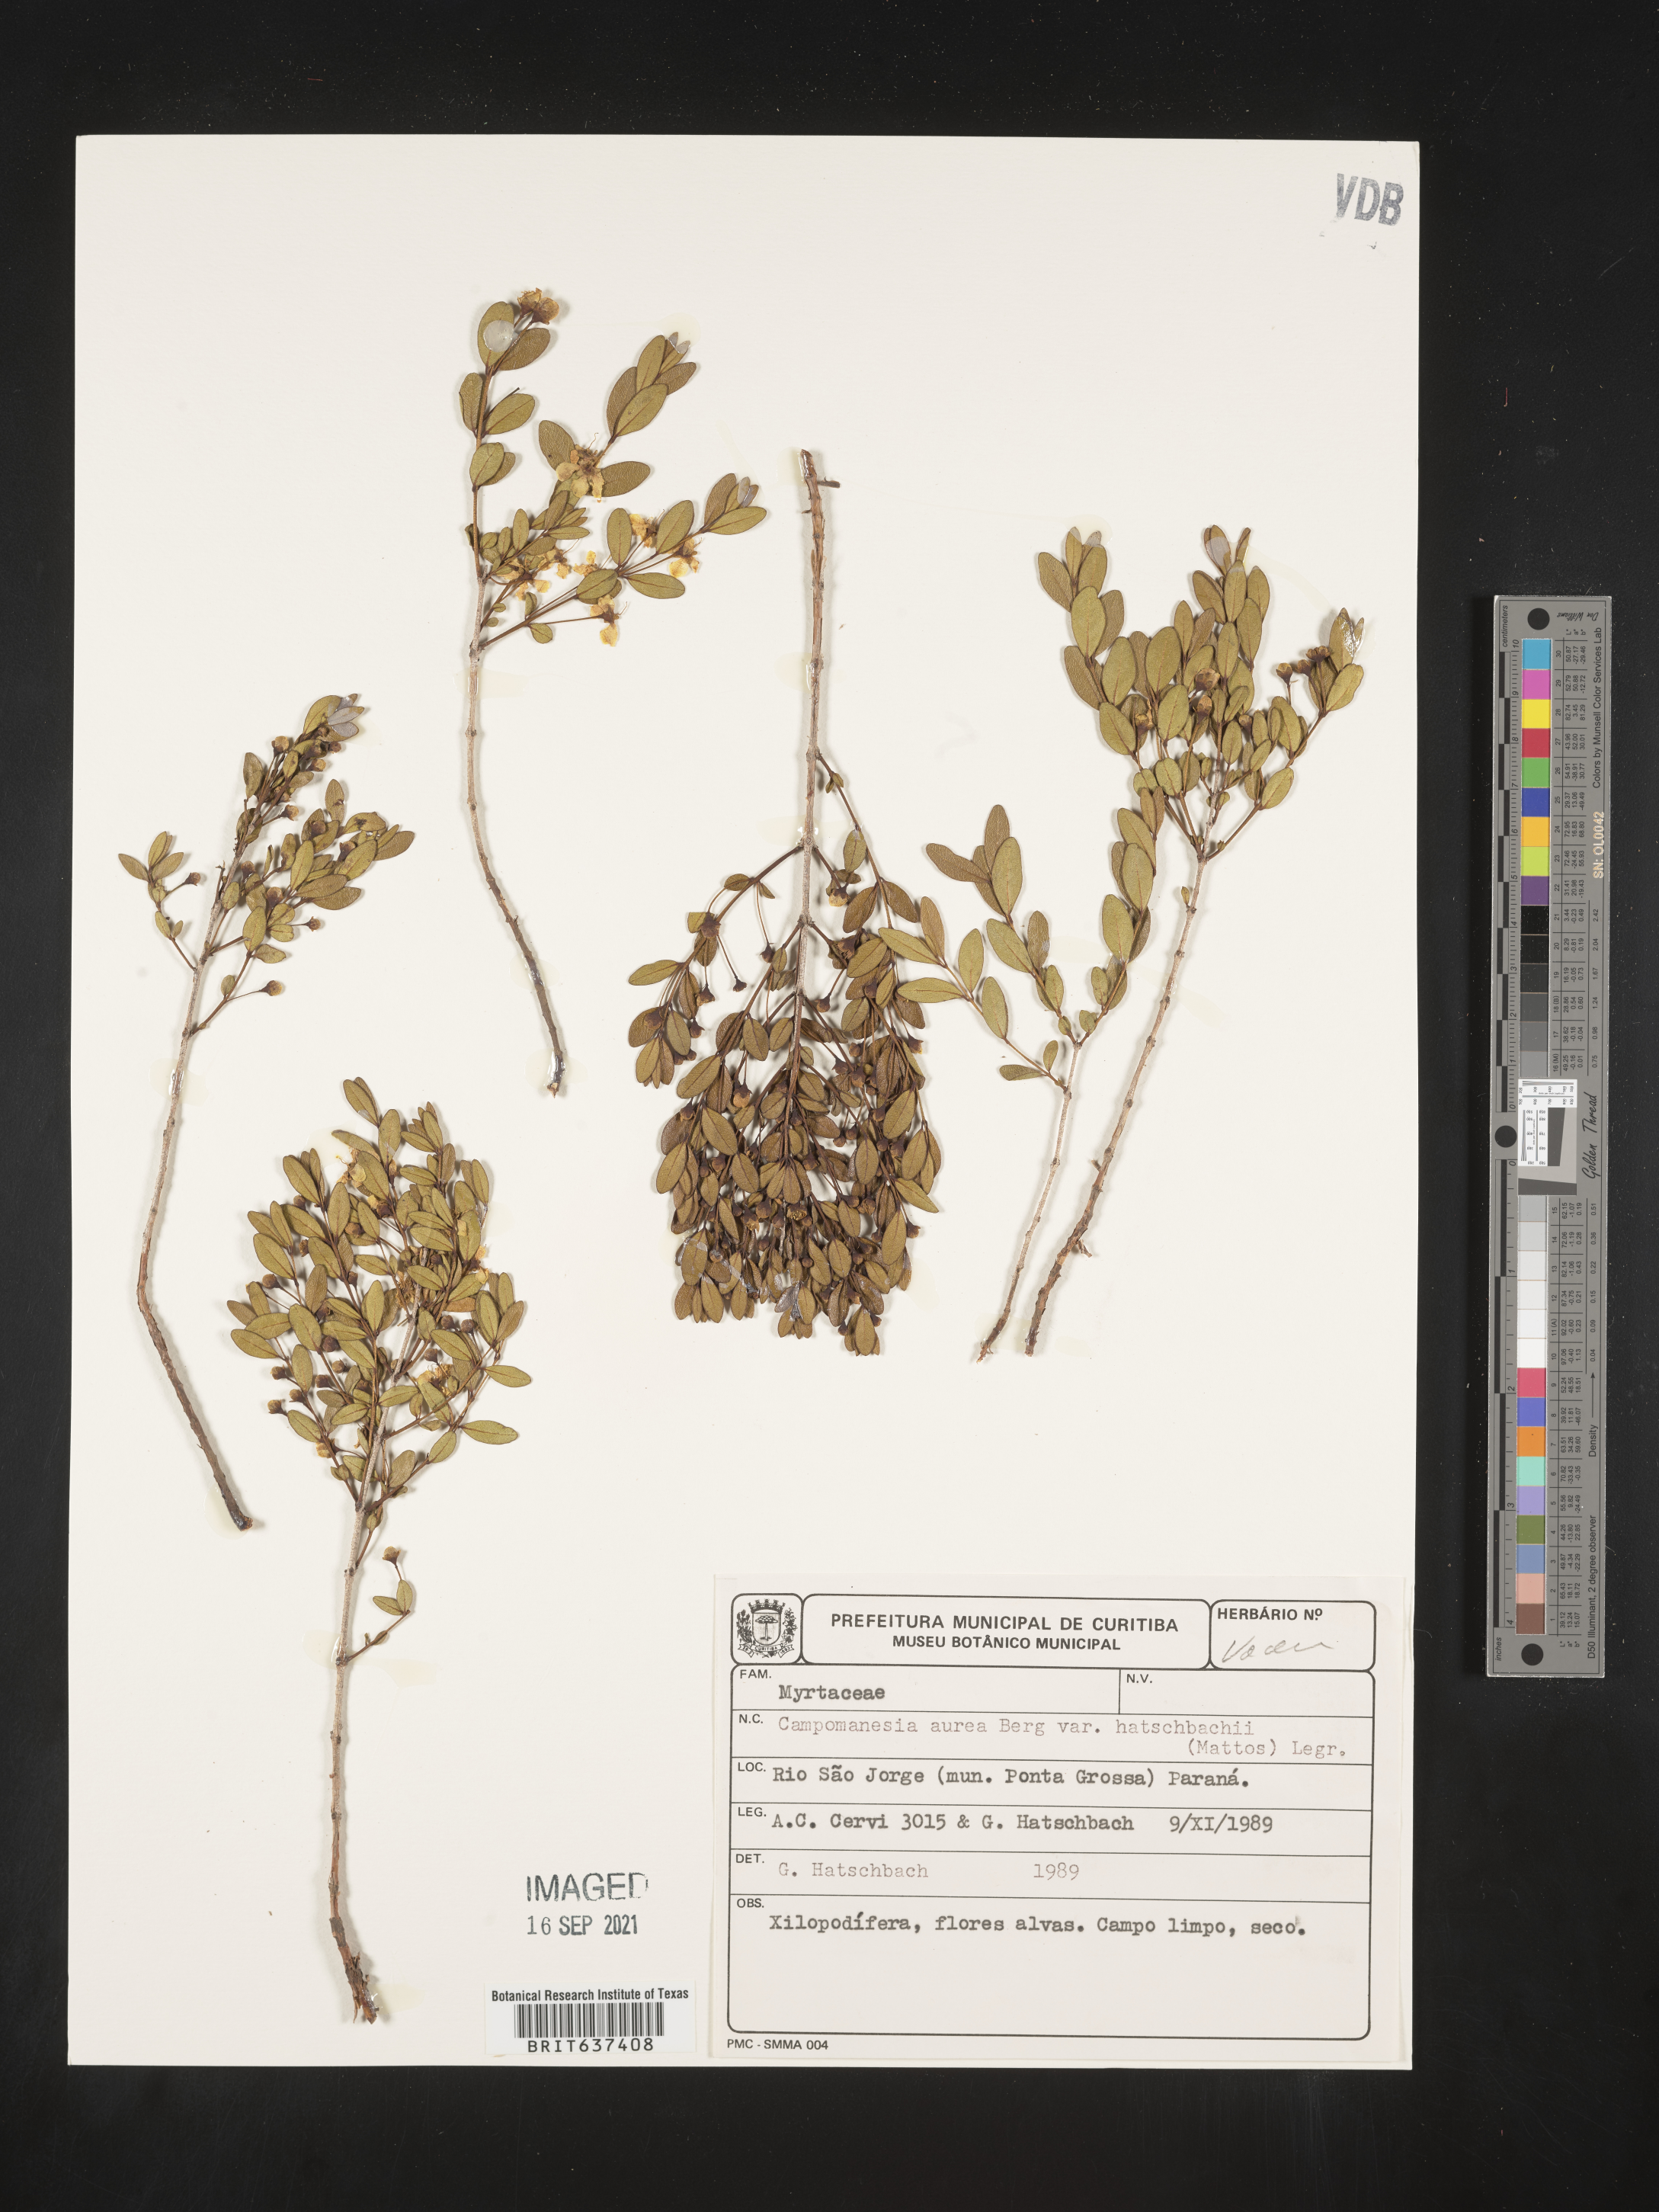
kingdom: Plantae
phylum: Tracheophyta
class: Magnoliopsida
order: Myrtales
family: Myrtaceae
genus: Campomanesia
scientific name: Campomanesia
